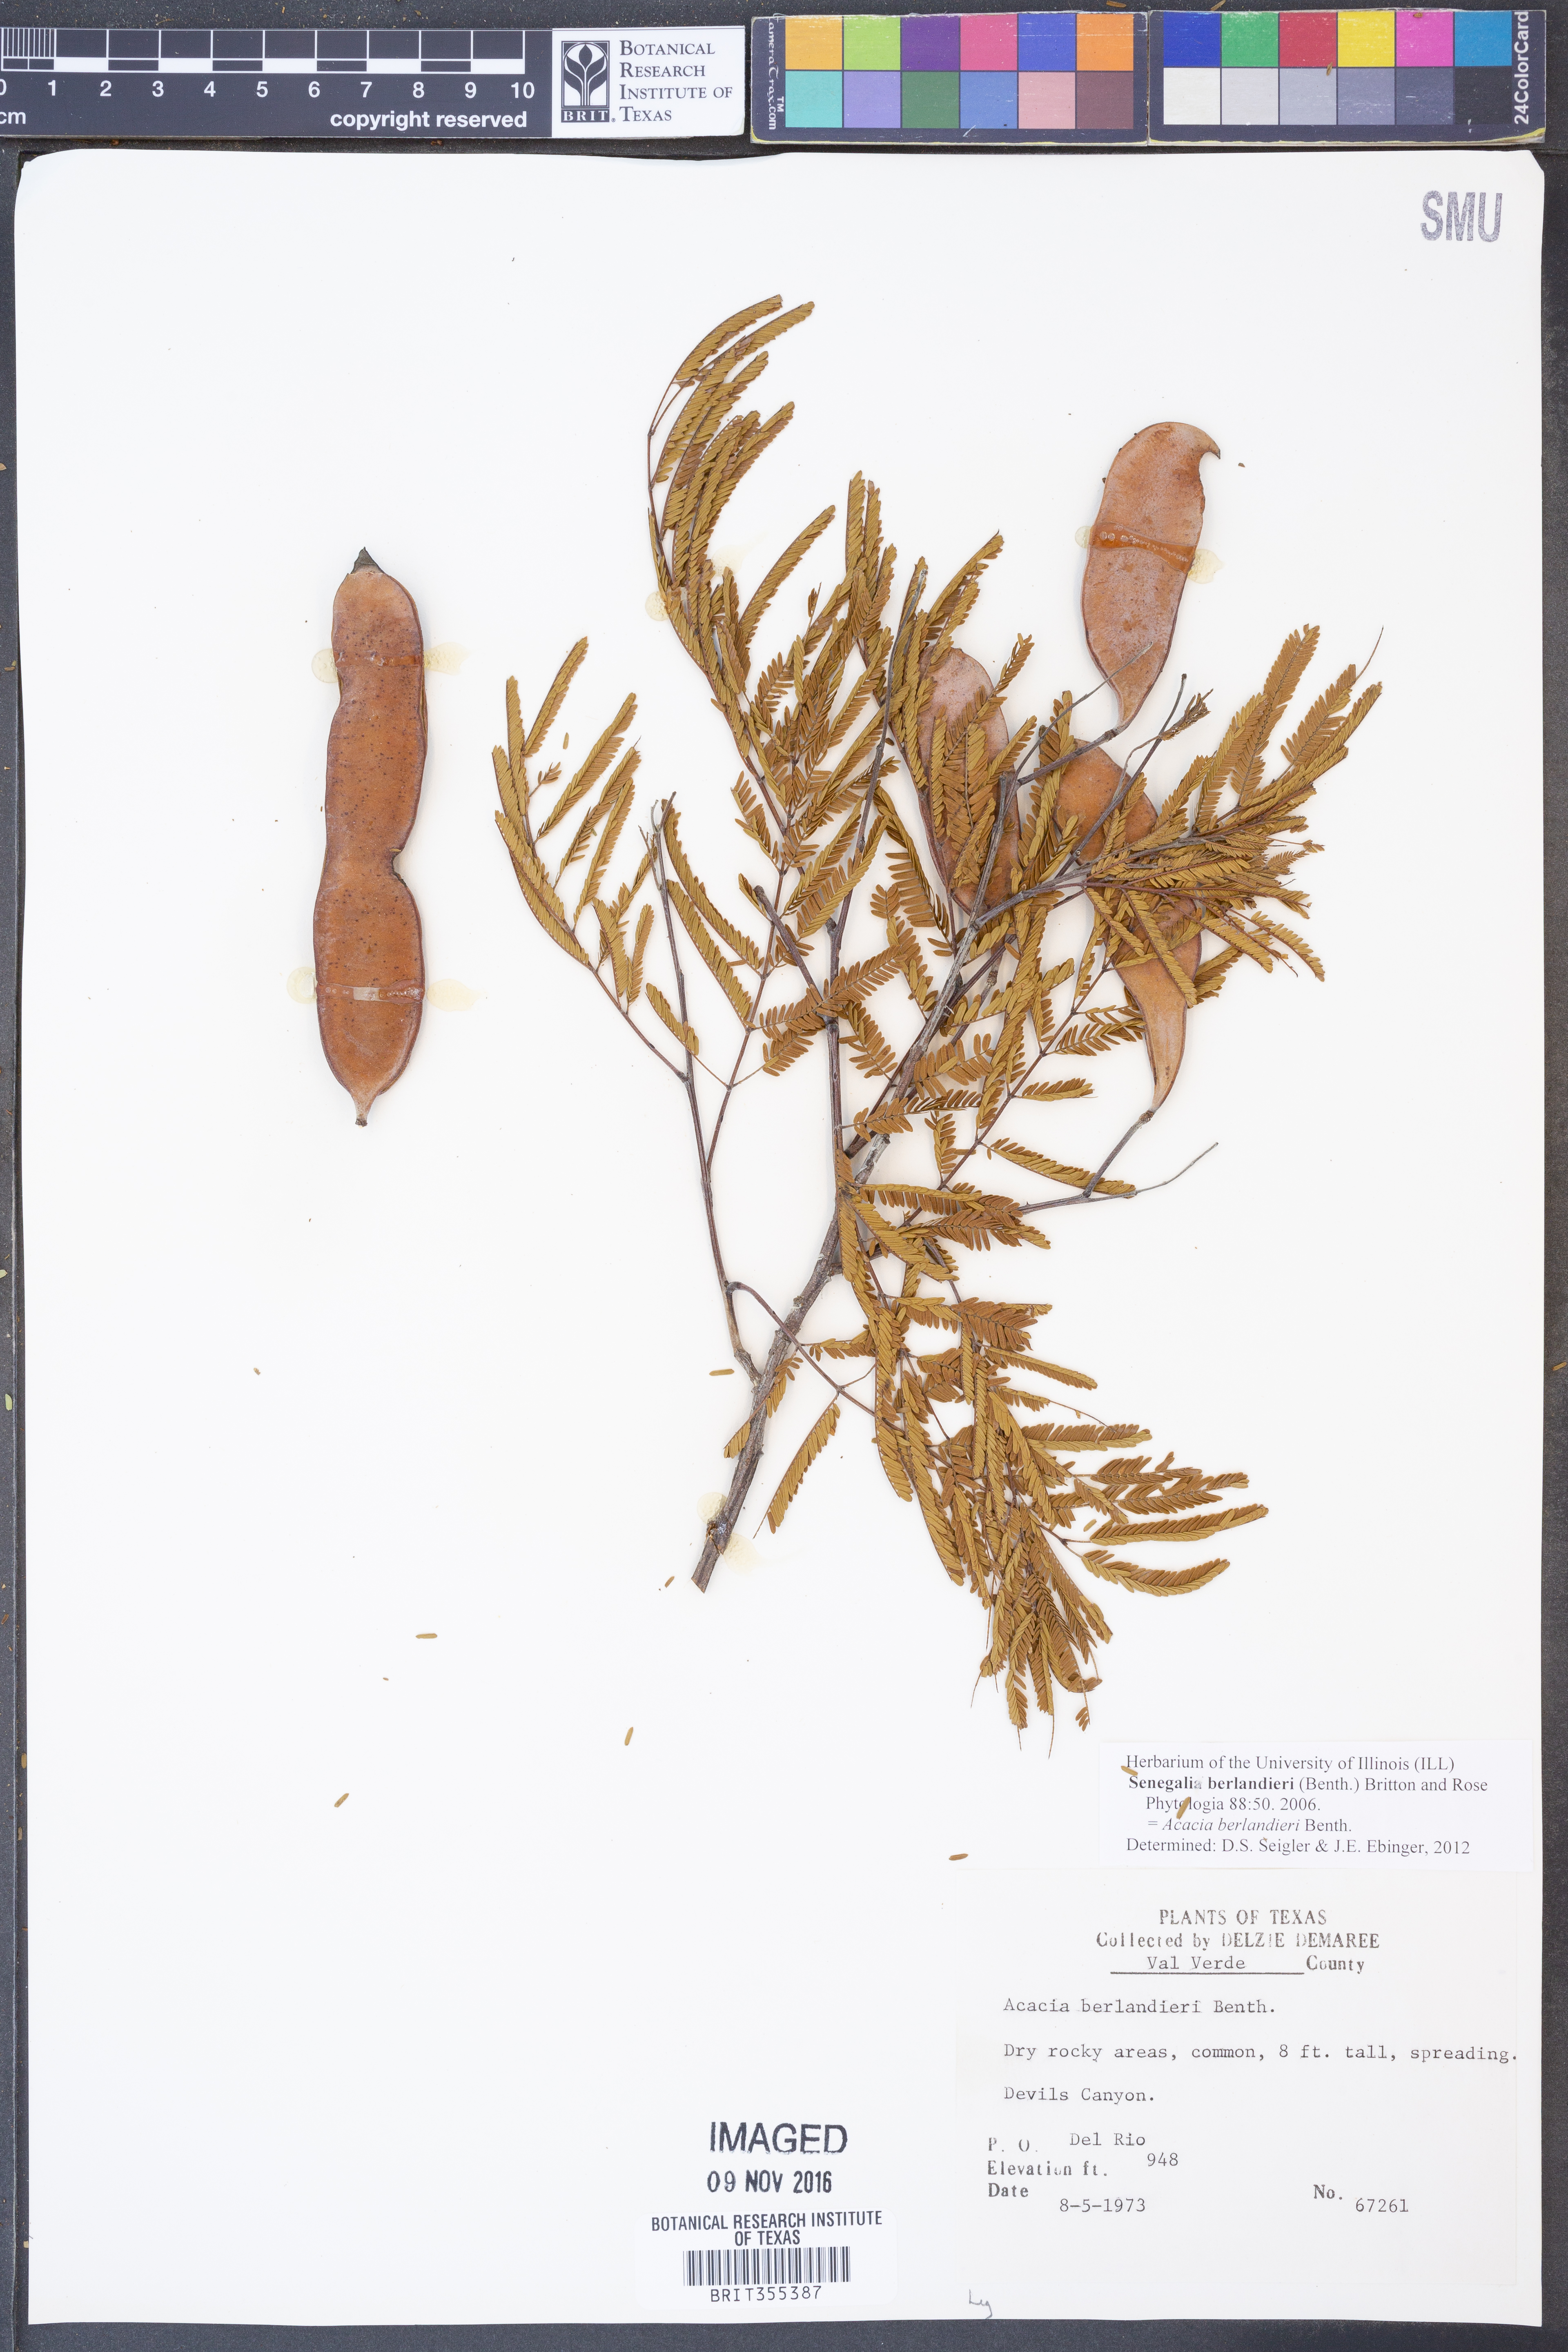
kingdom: Plantae
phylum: Tracheophyta
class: Magnoliopsida
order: Fabales
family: Fabaceae
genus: Senegalia
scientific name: Senegalia berlandieri
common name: Berlandier acacia
